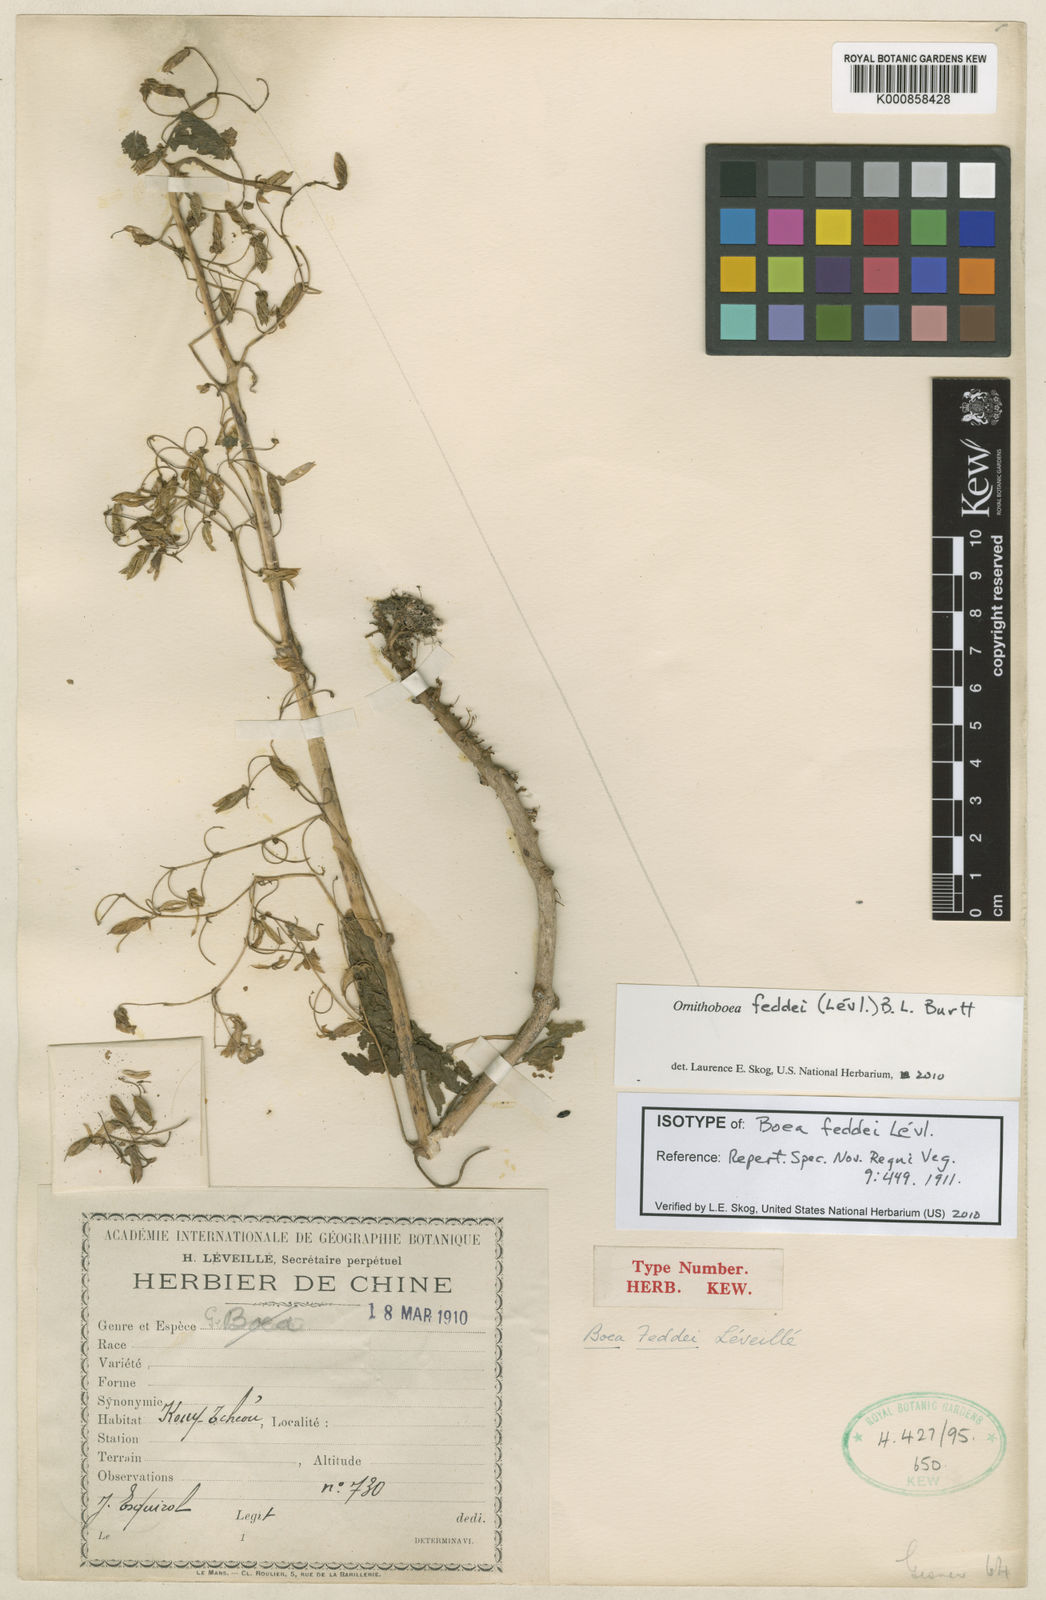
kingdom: Plantae
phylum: Tracheophyta
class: Magnoliopsida
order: Lamiales
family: Gesneriaceae
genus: Ornithoboea
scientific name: Ornithoboea
